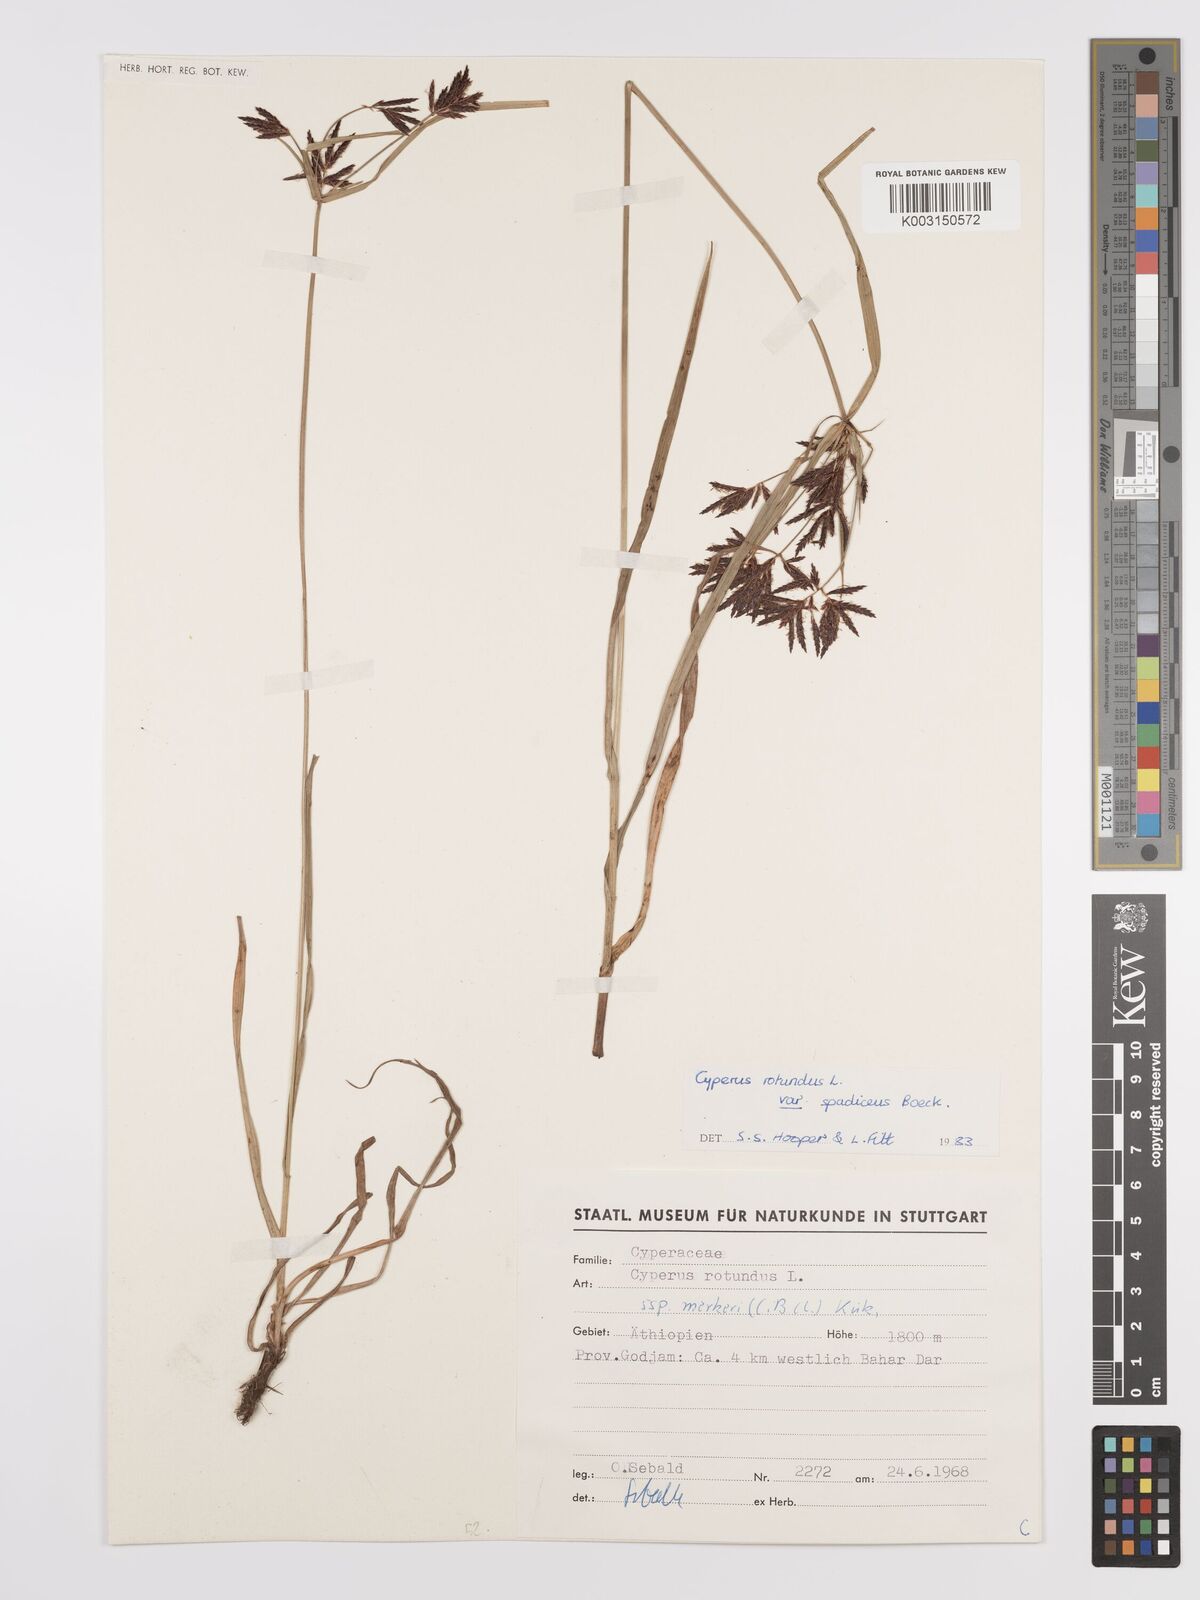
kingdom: Plantae
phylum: Tracheophyta
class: Liliopsida
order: Poales
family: Cyperaceae
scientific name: Cyperaceae
